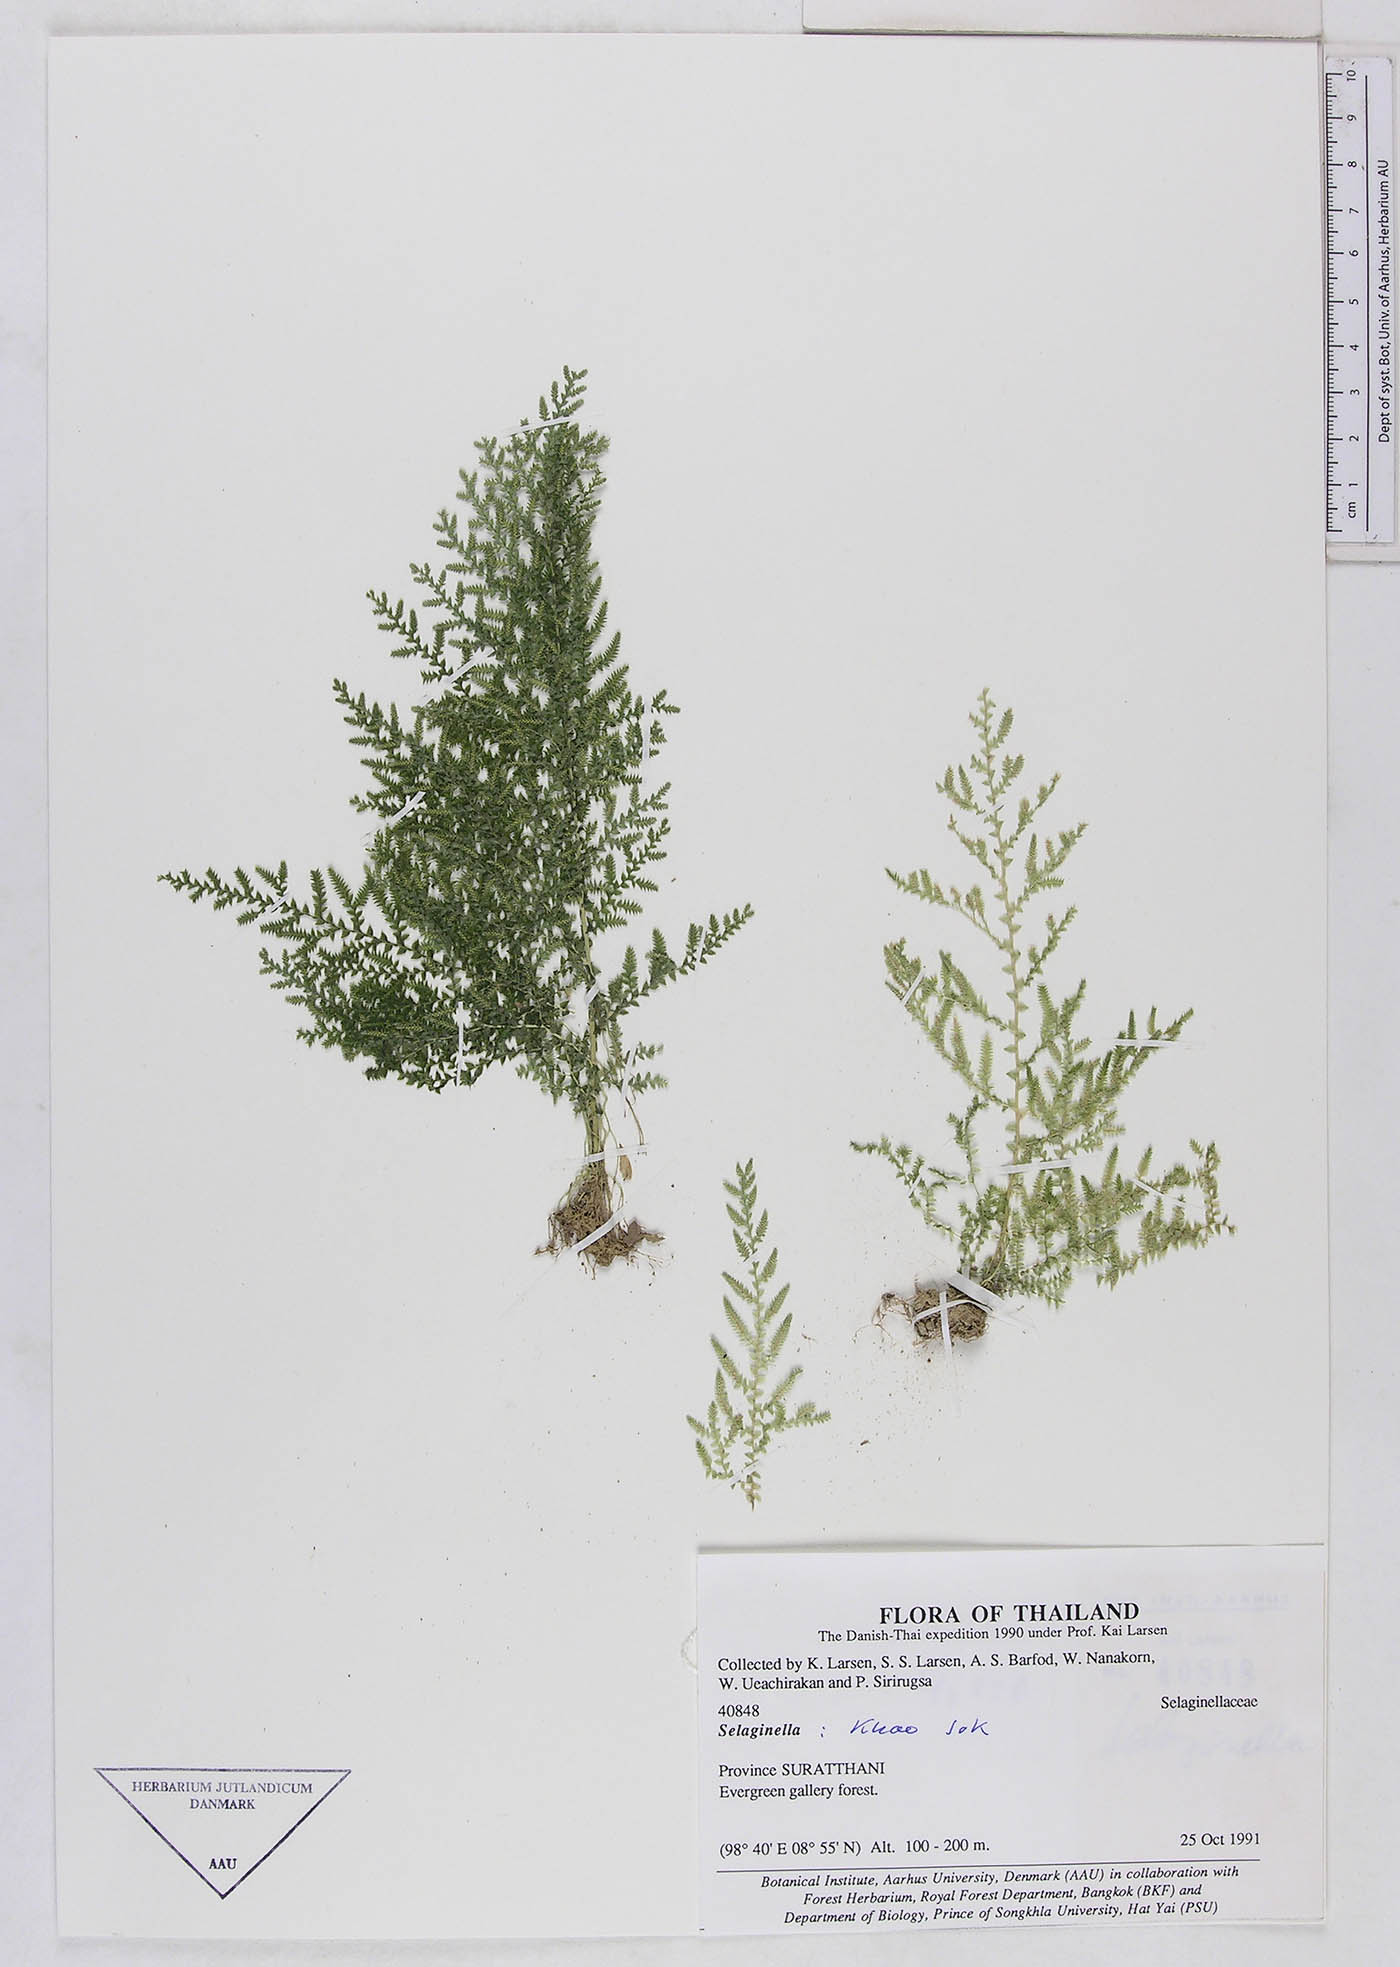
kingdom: Plantae
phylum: Tracheophyta
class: Lycopodiopsida
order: Selaginellales
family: Selaginellaceae
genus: Selaginella
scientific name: Selaginella
